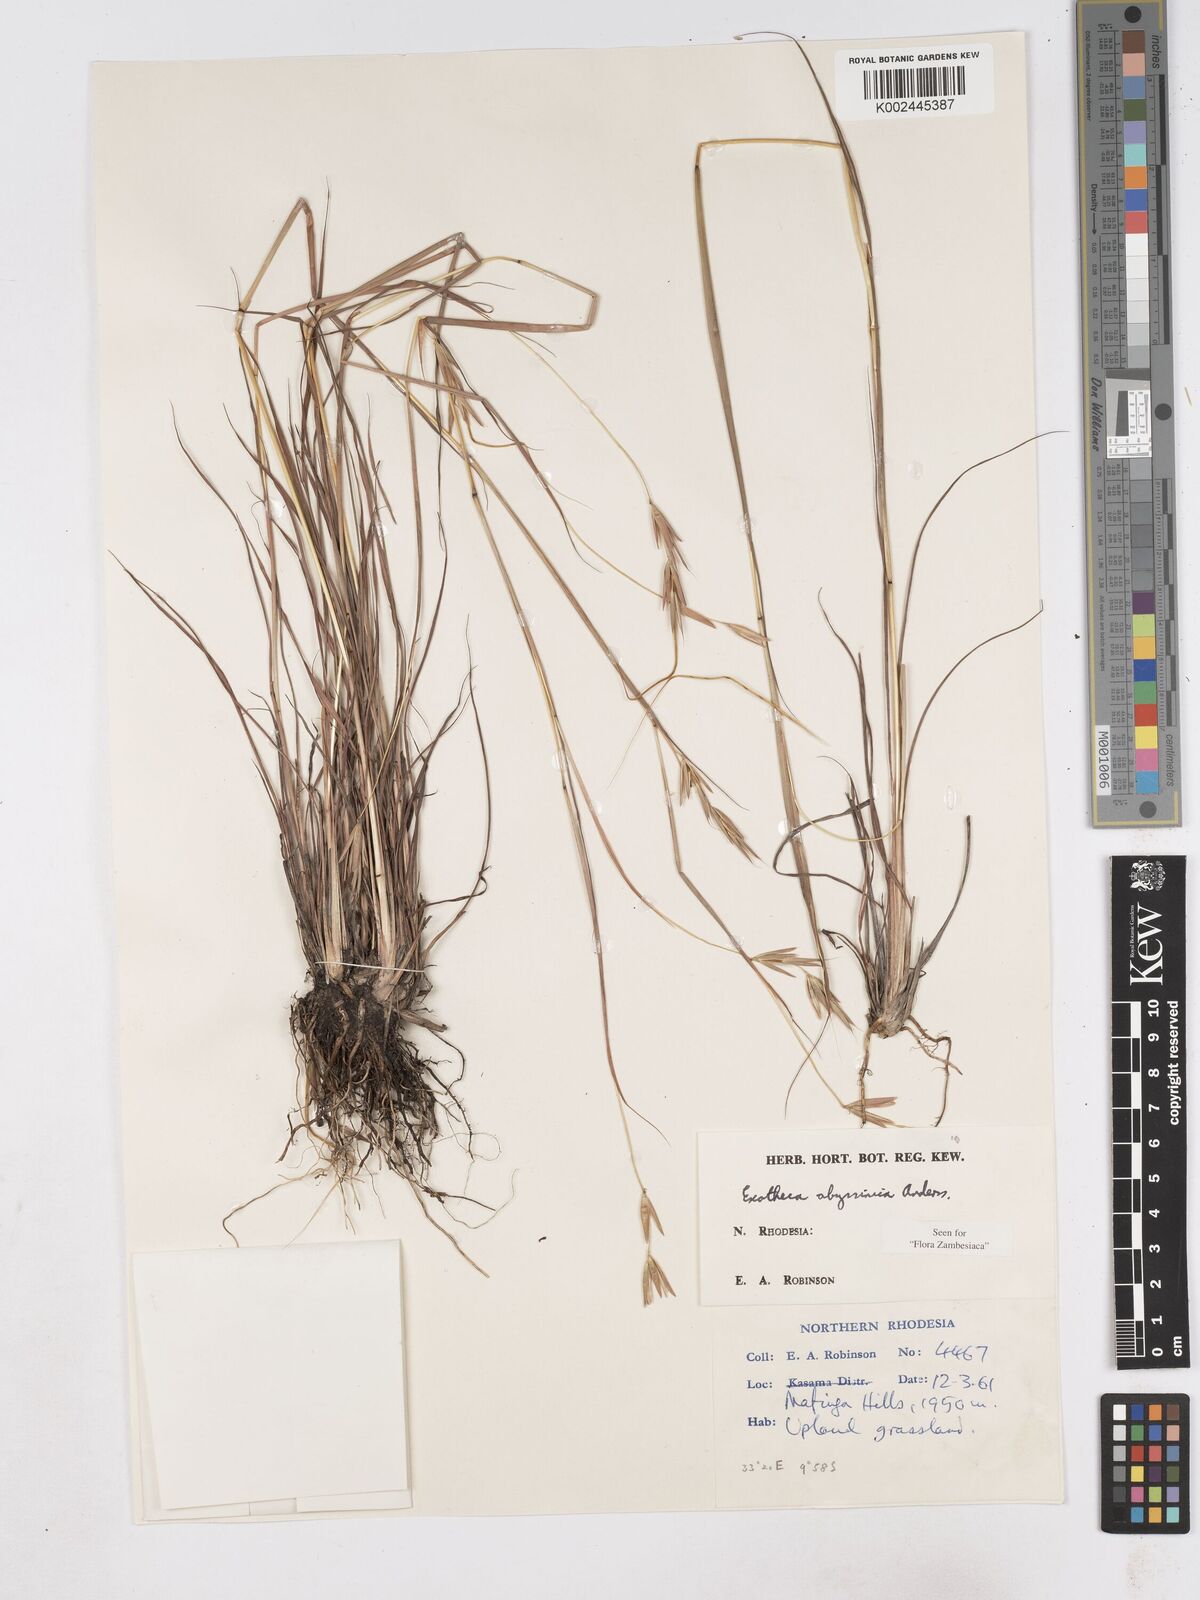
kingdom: Plantae
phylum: Tracheophyta
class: Liliopsida
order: Poales
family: Poaceae
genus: Exotheca
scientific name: Exotheca abyssinica
